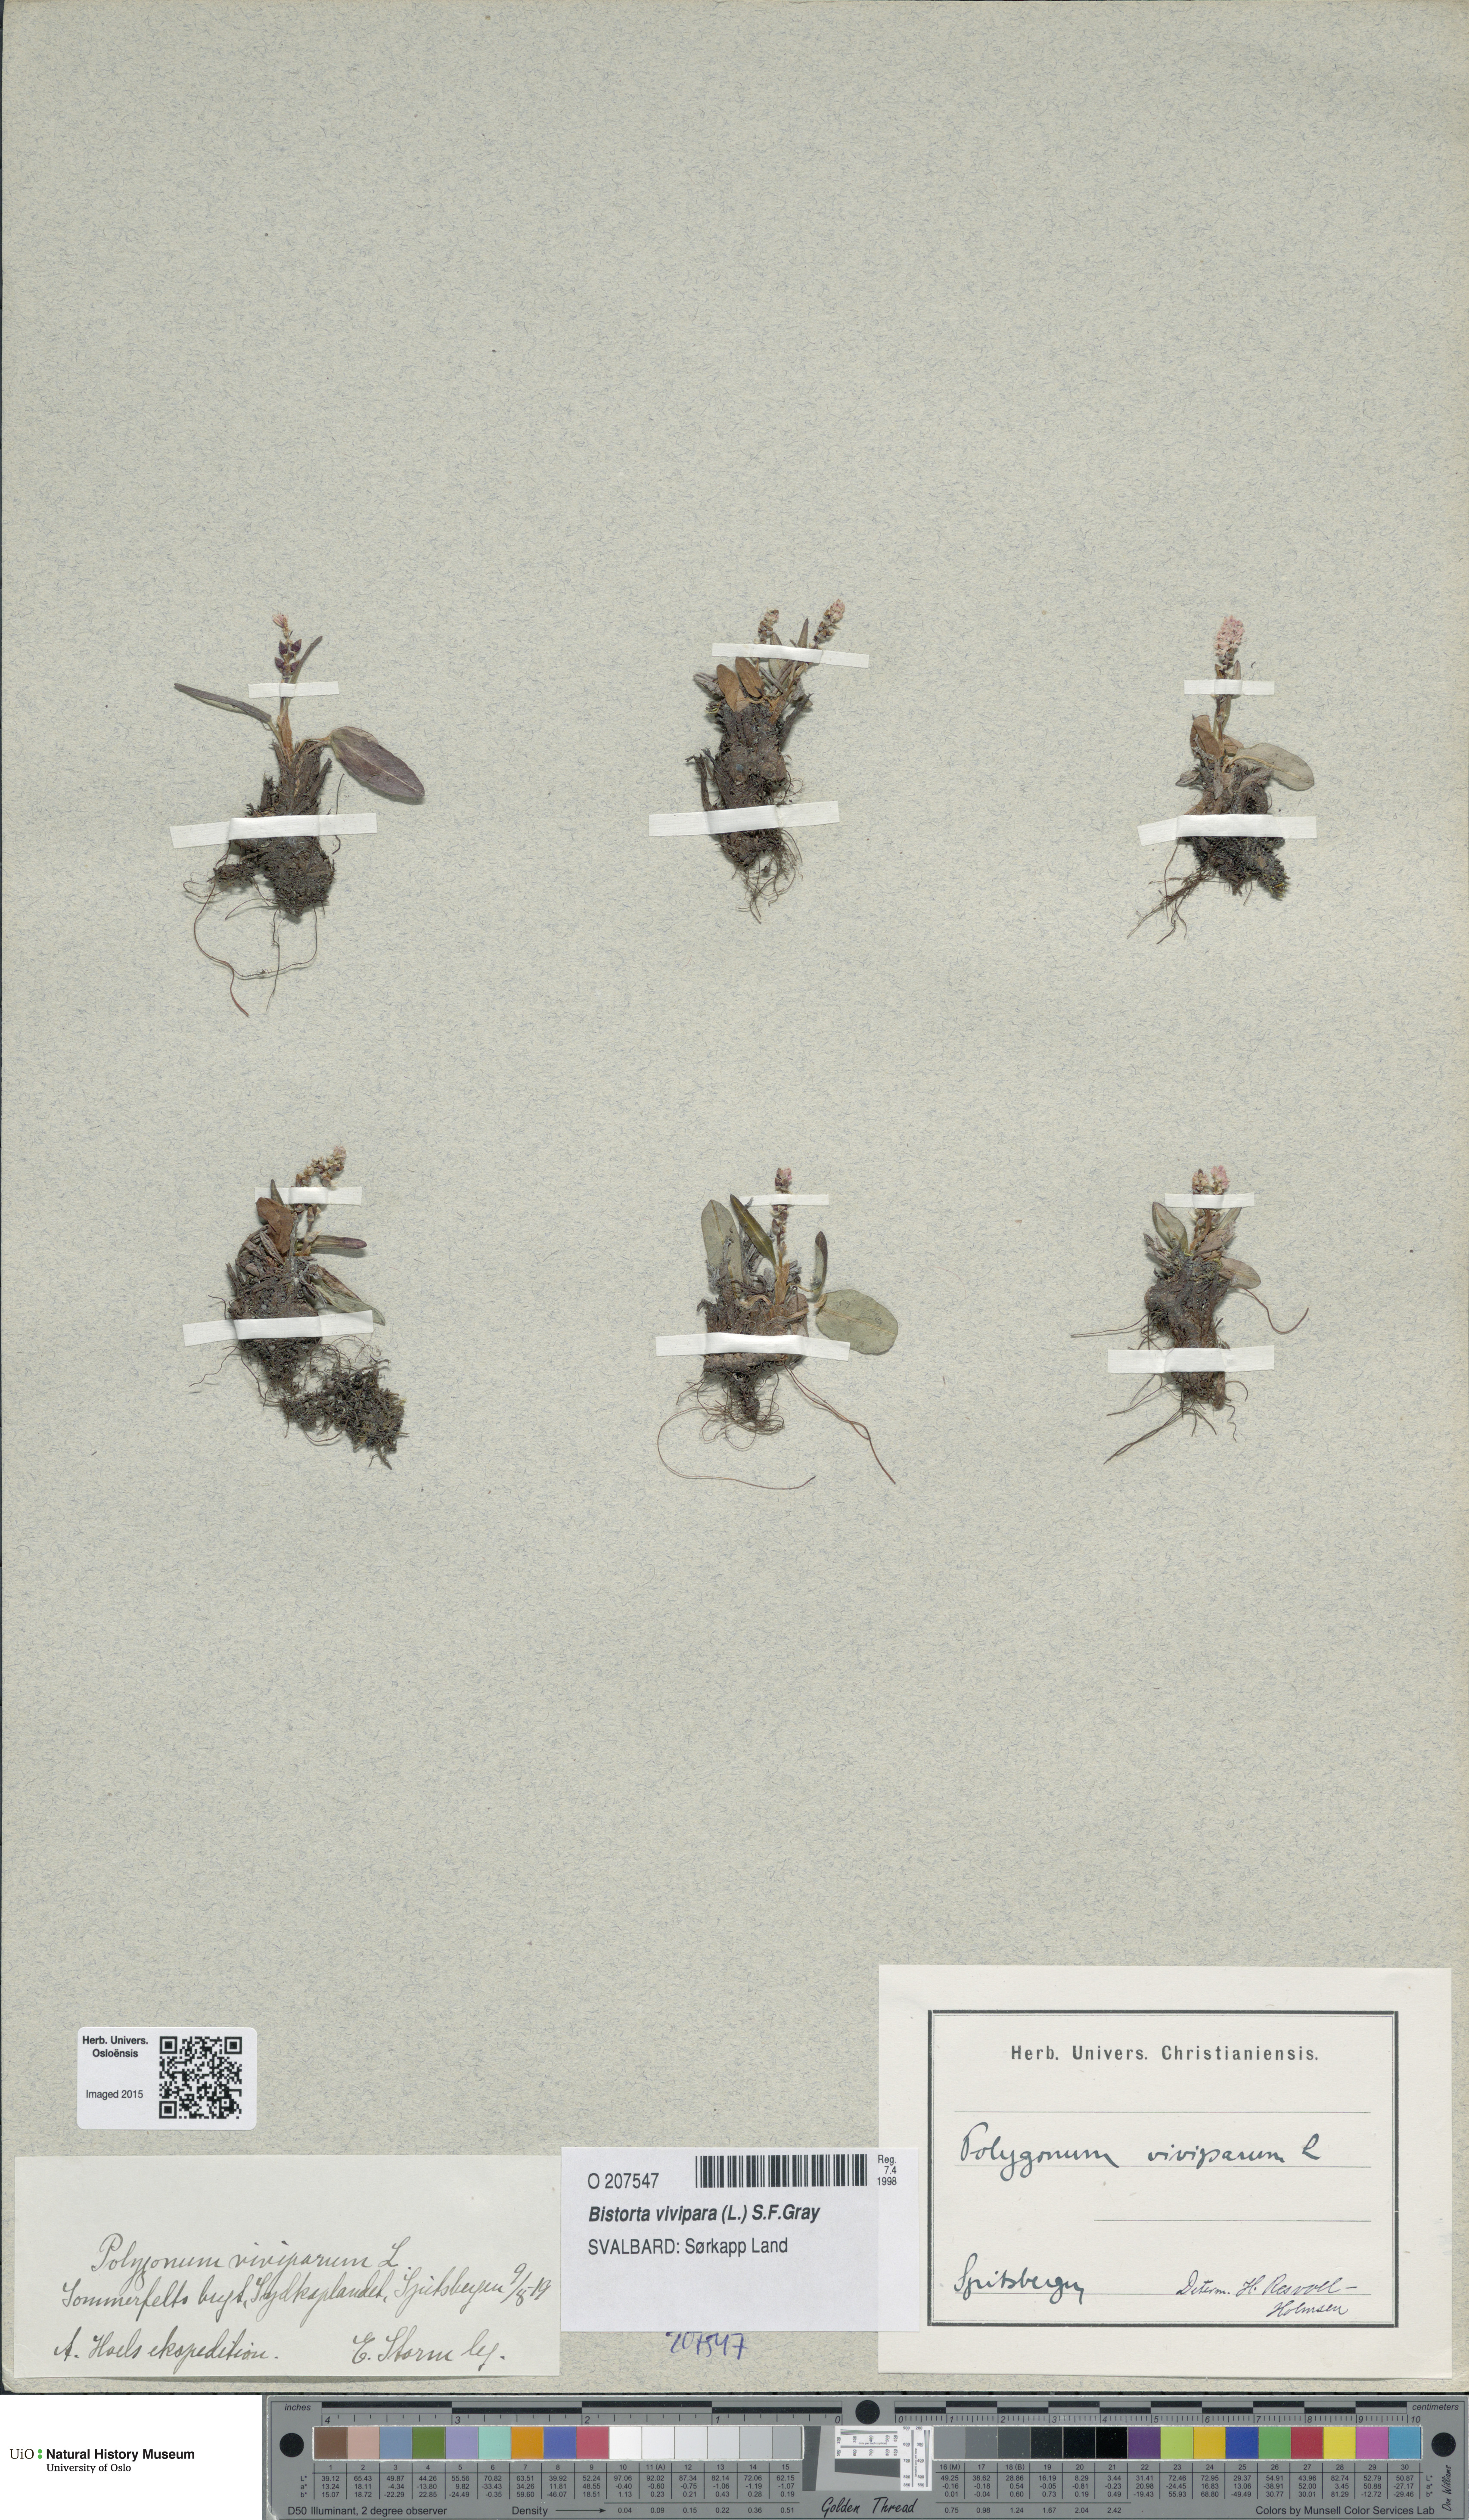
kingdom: Plantae
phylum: Tracheophyta
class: Magnoliopsida
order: Caryophyllales
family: Polygonaceae
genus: Bistorta
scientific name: Bistorta vivipara
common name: Alpine bistort
